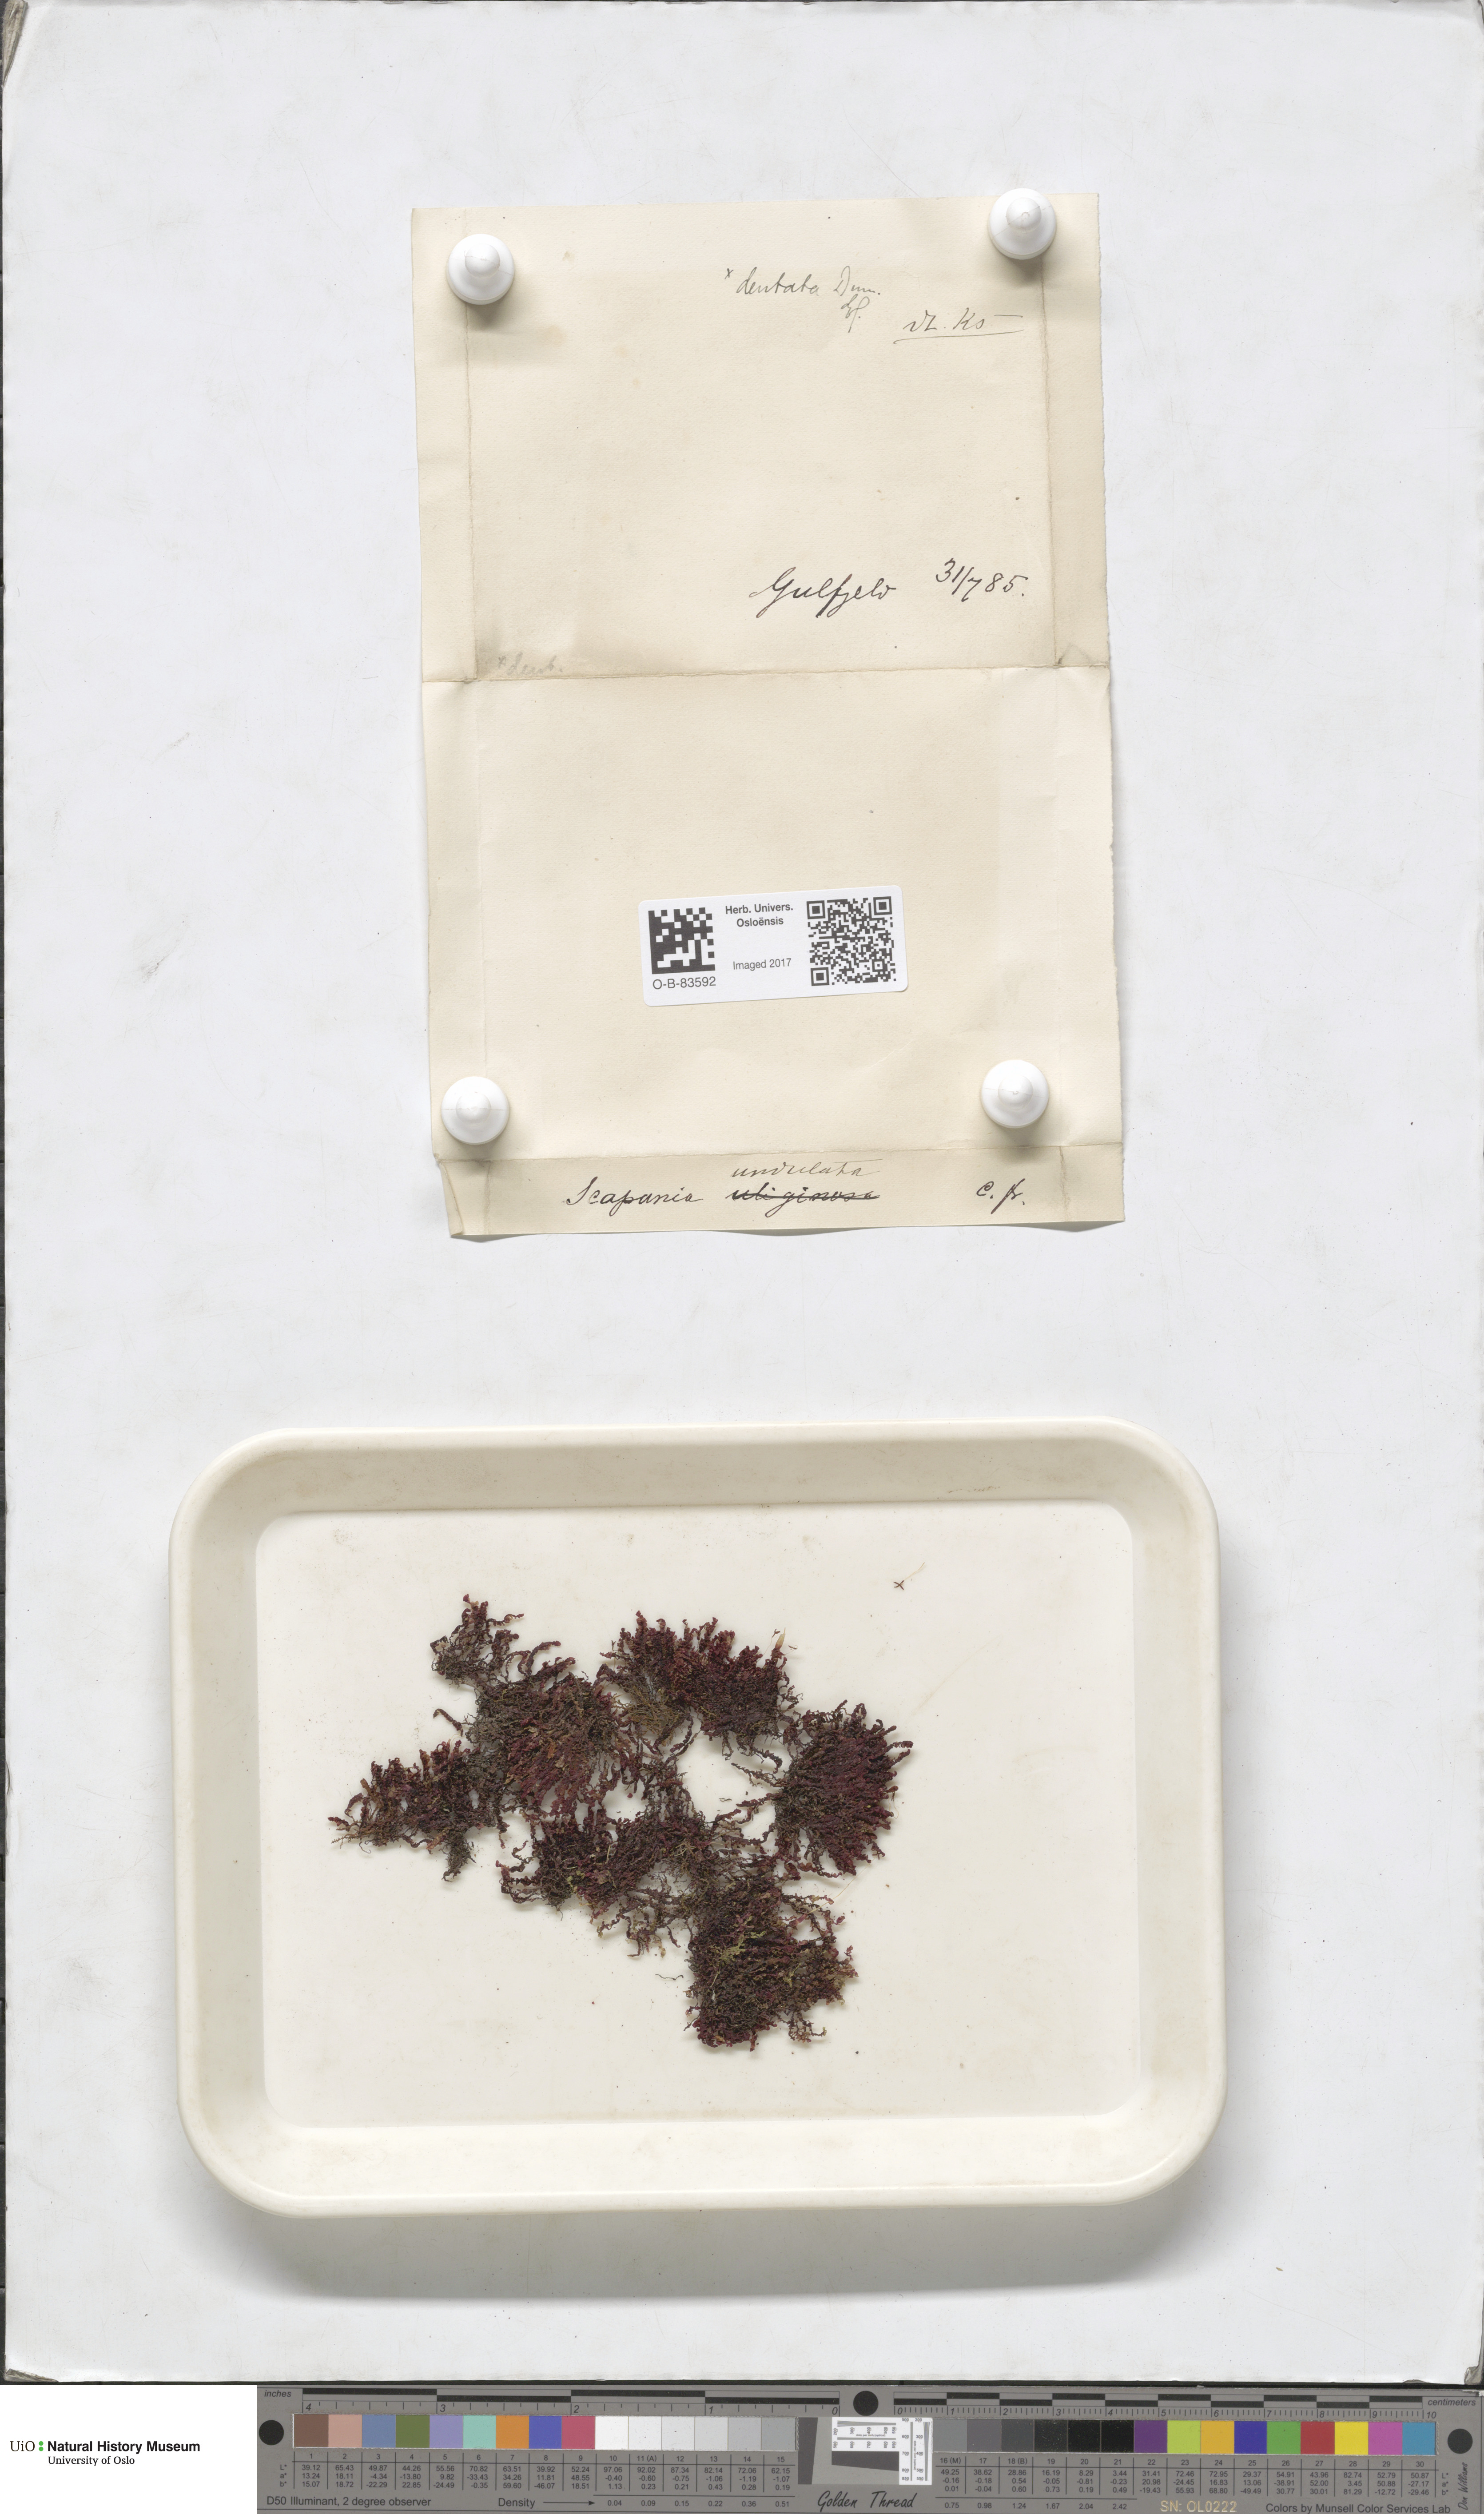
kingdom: Plantae
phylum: Marchantiophyta
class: Jungermanniopsida
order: Jungermanniales
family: Scapaniaceae
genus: Scapania
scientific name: Scapania undulata
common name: Water earwort
